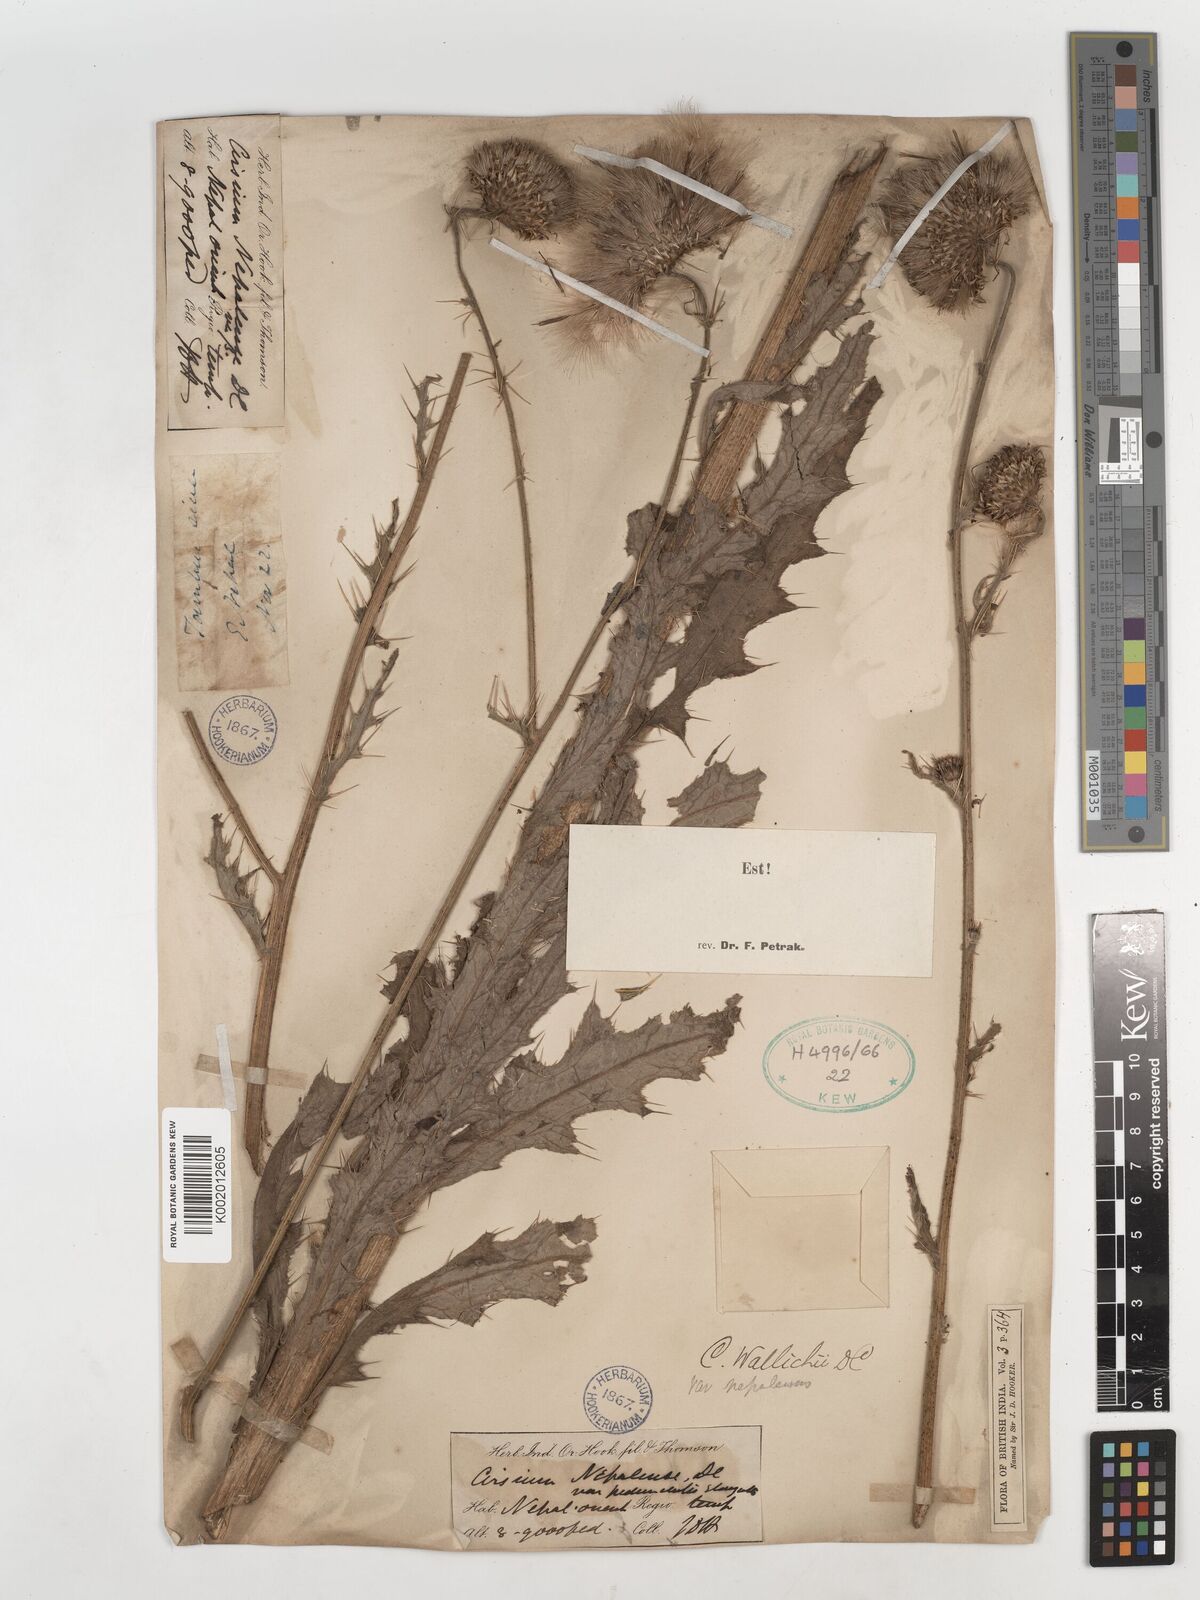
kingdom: Plantae
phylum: Tracheophyta
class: Magnoliopsida
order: Asterales
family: Asteraceae
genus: Cirsium
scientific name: Cirsium wallichii
